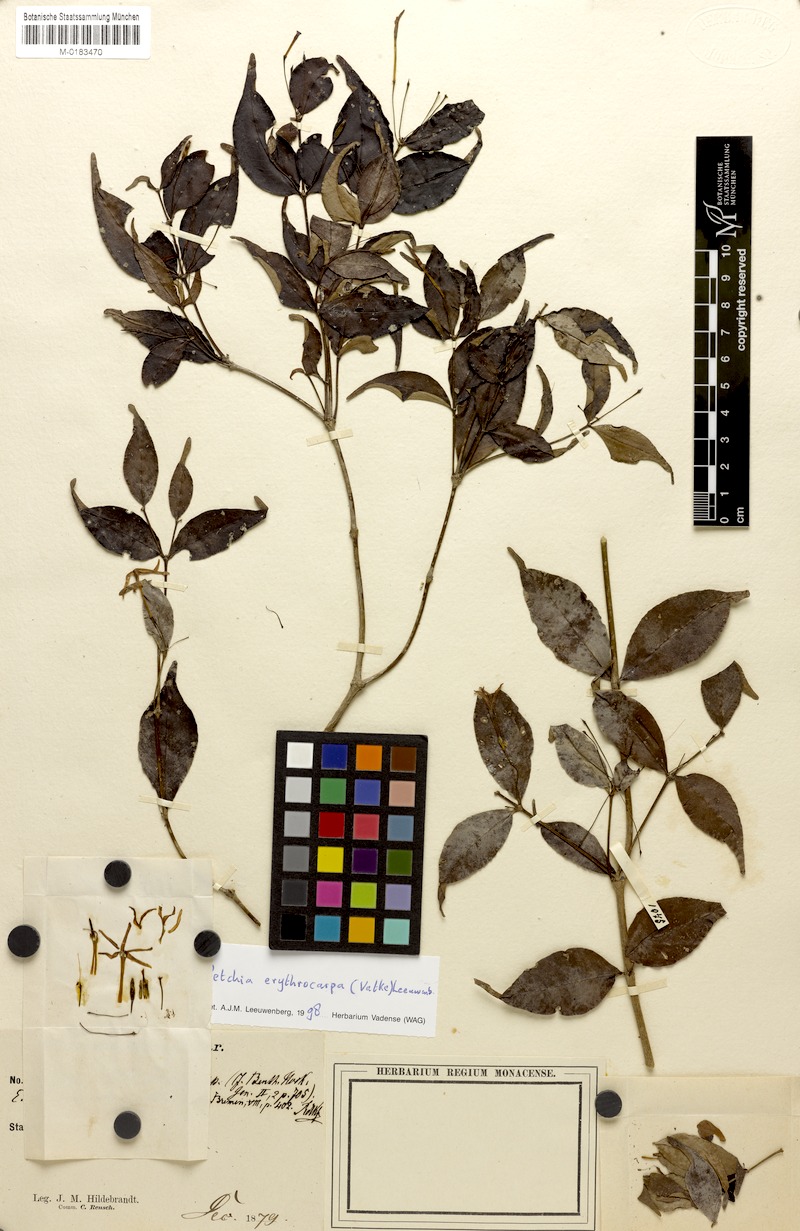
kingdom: Plantae
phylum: Tracheophyta
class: Magnoliopsida
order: Gentianales
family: Apocynaceae
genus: Petchia
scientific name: Petchia erythrocarpa
